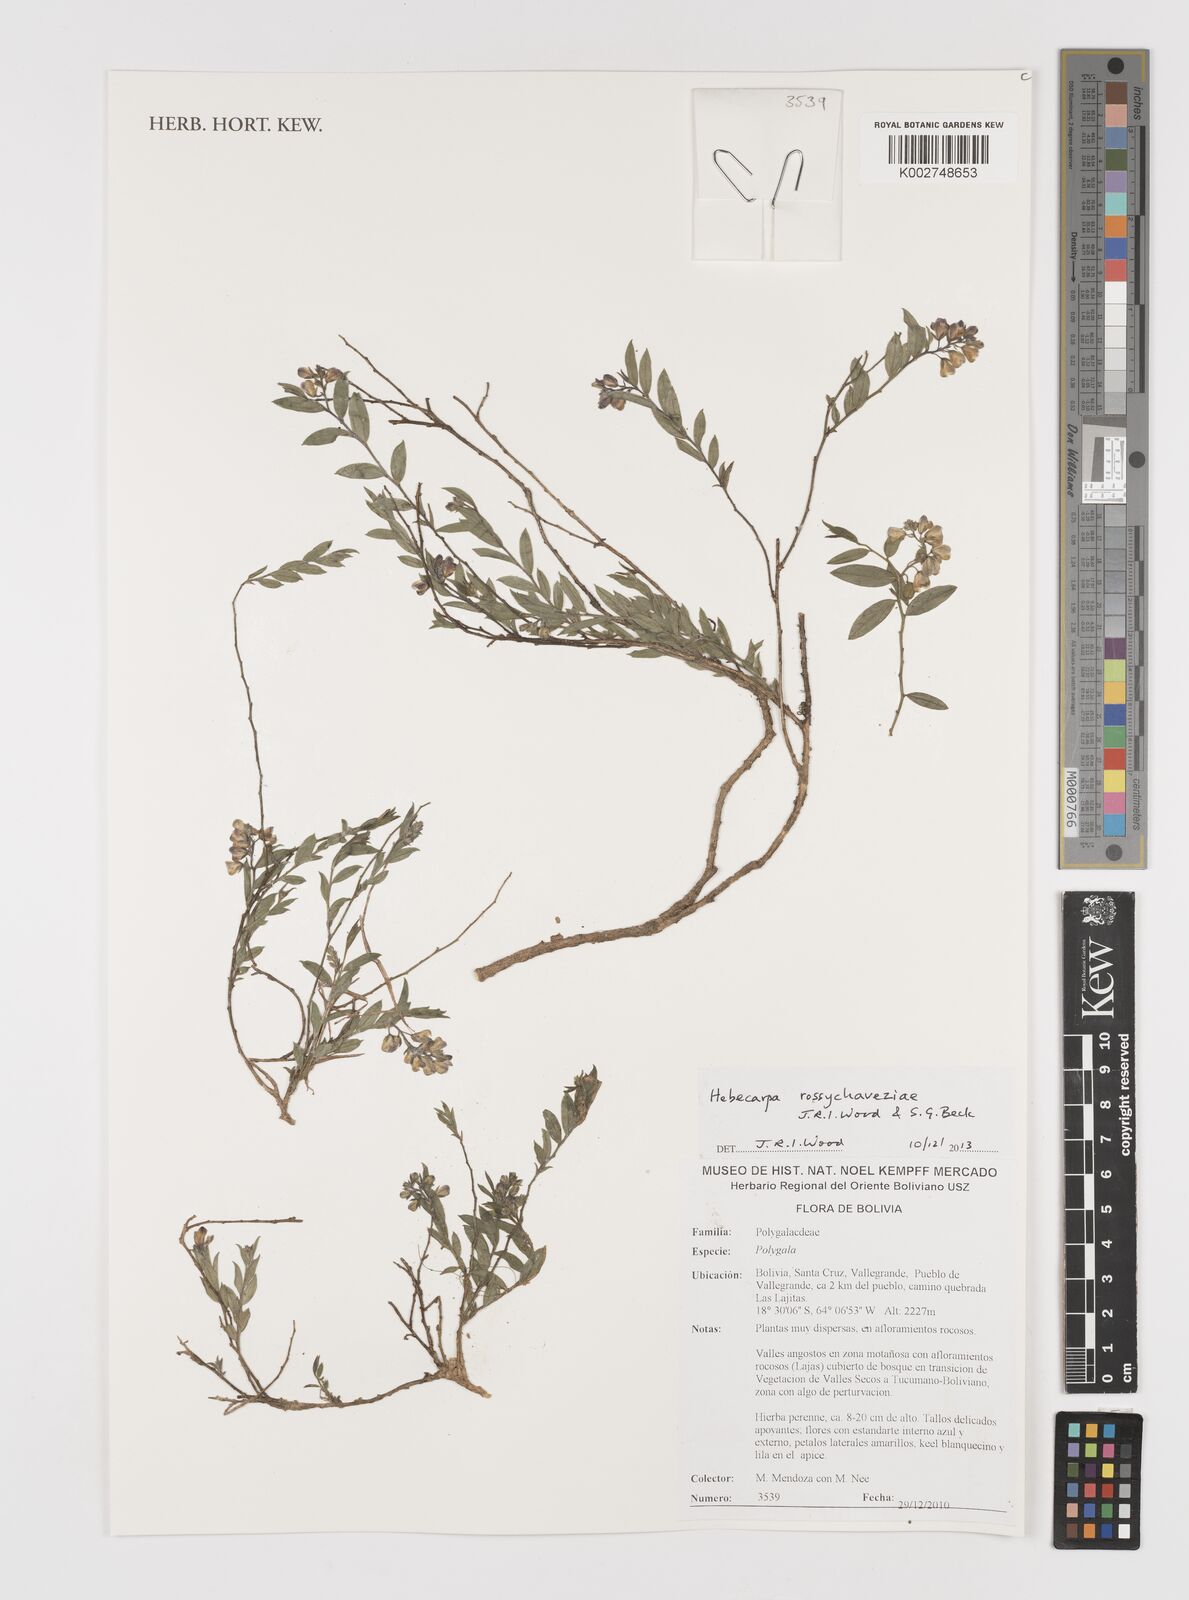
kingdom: Plantae
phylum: Tracheophyta
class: Magnoliopsida
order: Fabales
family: Polygalaceae
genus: Hebecarpa
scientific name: Hebecarpa rossychaveziae
